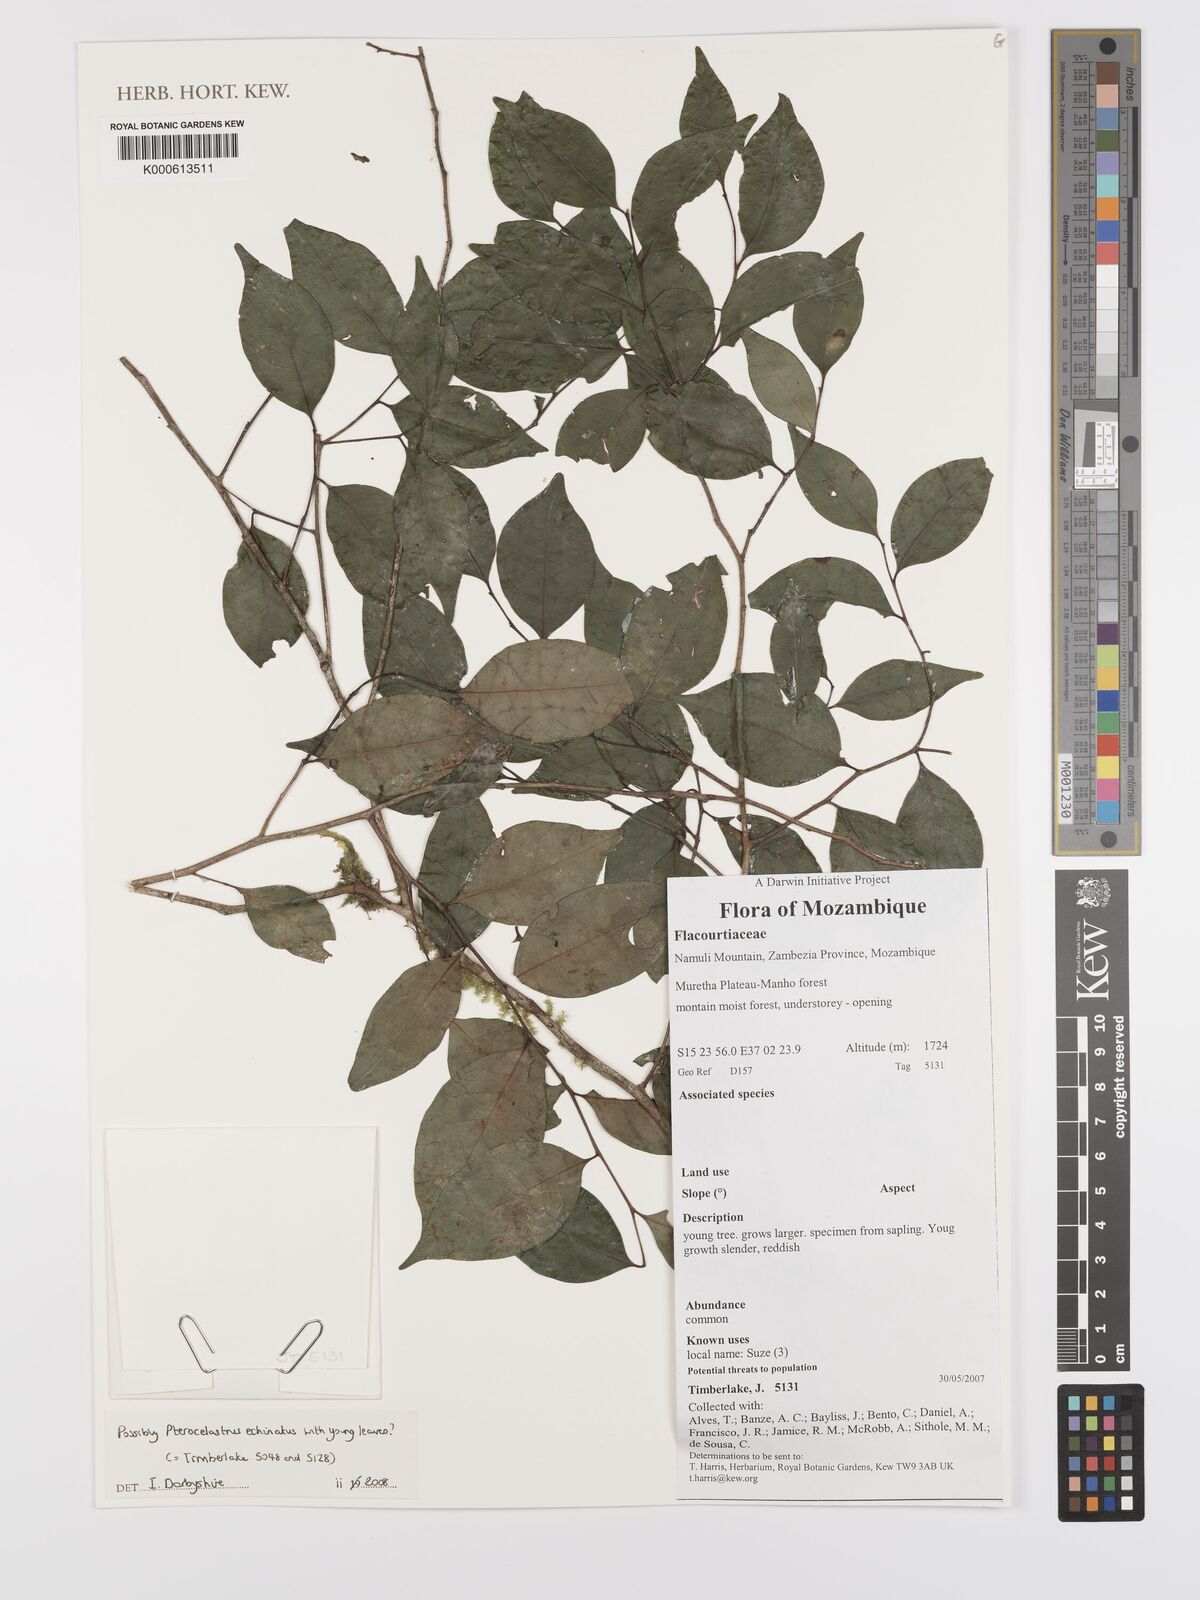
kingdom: Plantae
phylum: Tracheophyta
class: Magnoliopsida
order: Celastrales
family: Celastraceae
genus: Pterocelastrus
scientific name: Pterocelastrus
